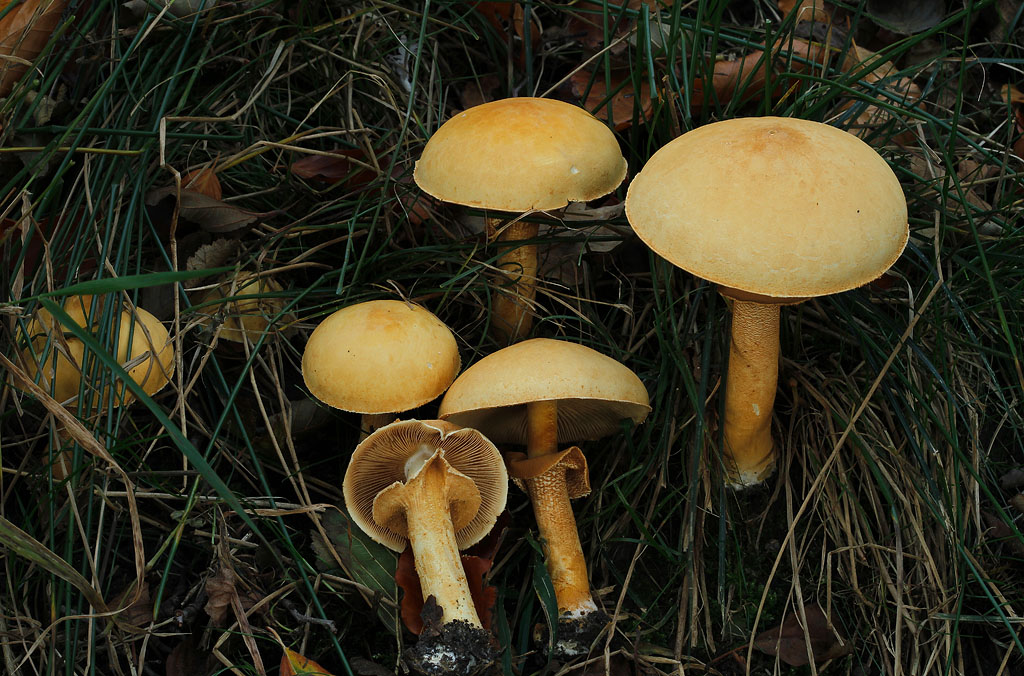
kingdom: Fungi
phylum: Basidiomycota
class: Agaricomycetes
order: Agaricales
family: Tricholomataceae
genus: Phaeolepiota
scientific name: Phaeolepiota aurea
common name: gyldenhat
